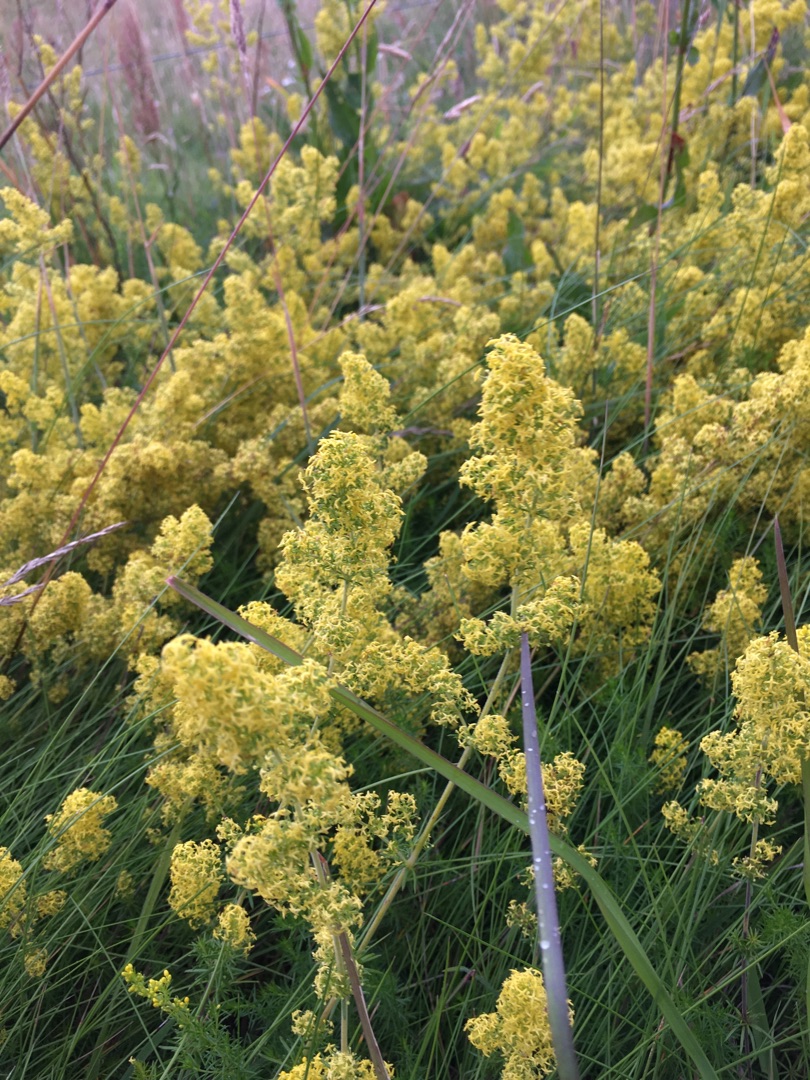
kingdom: Plantae
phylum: Tracheophyta
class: Magnoliopsida
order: Gentianales
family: Rubiaceae
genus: Galium
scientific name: Galium verum
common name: Gul snerre
